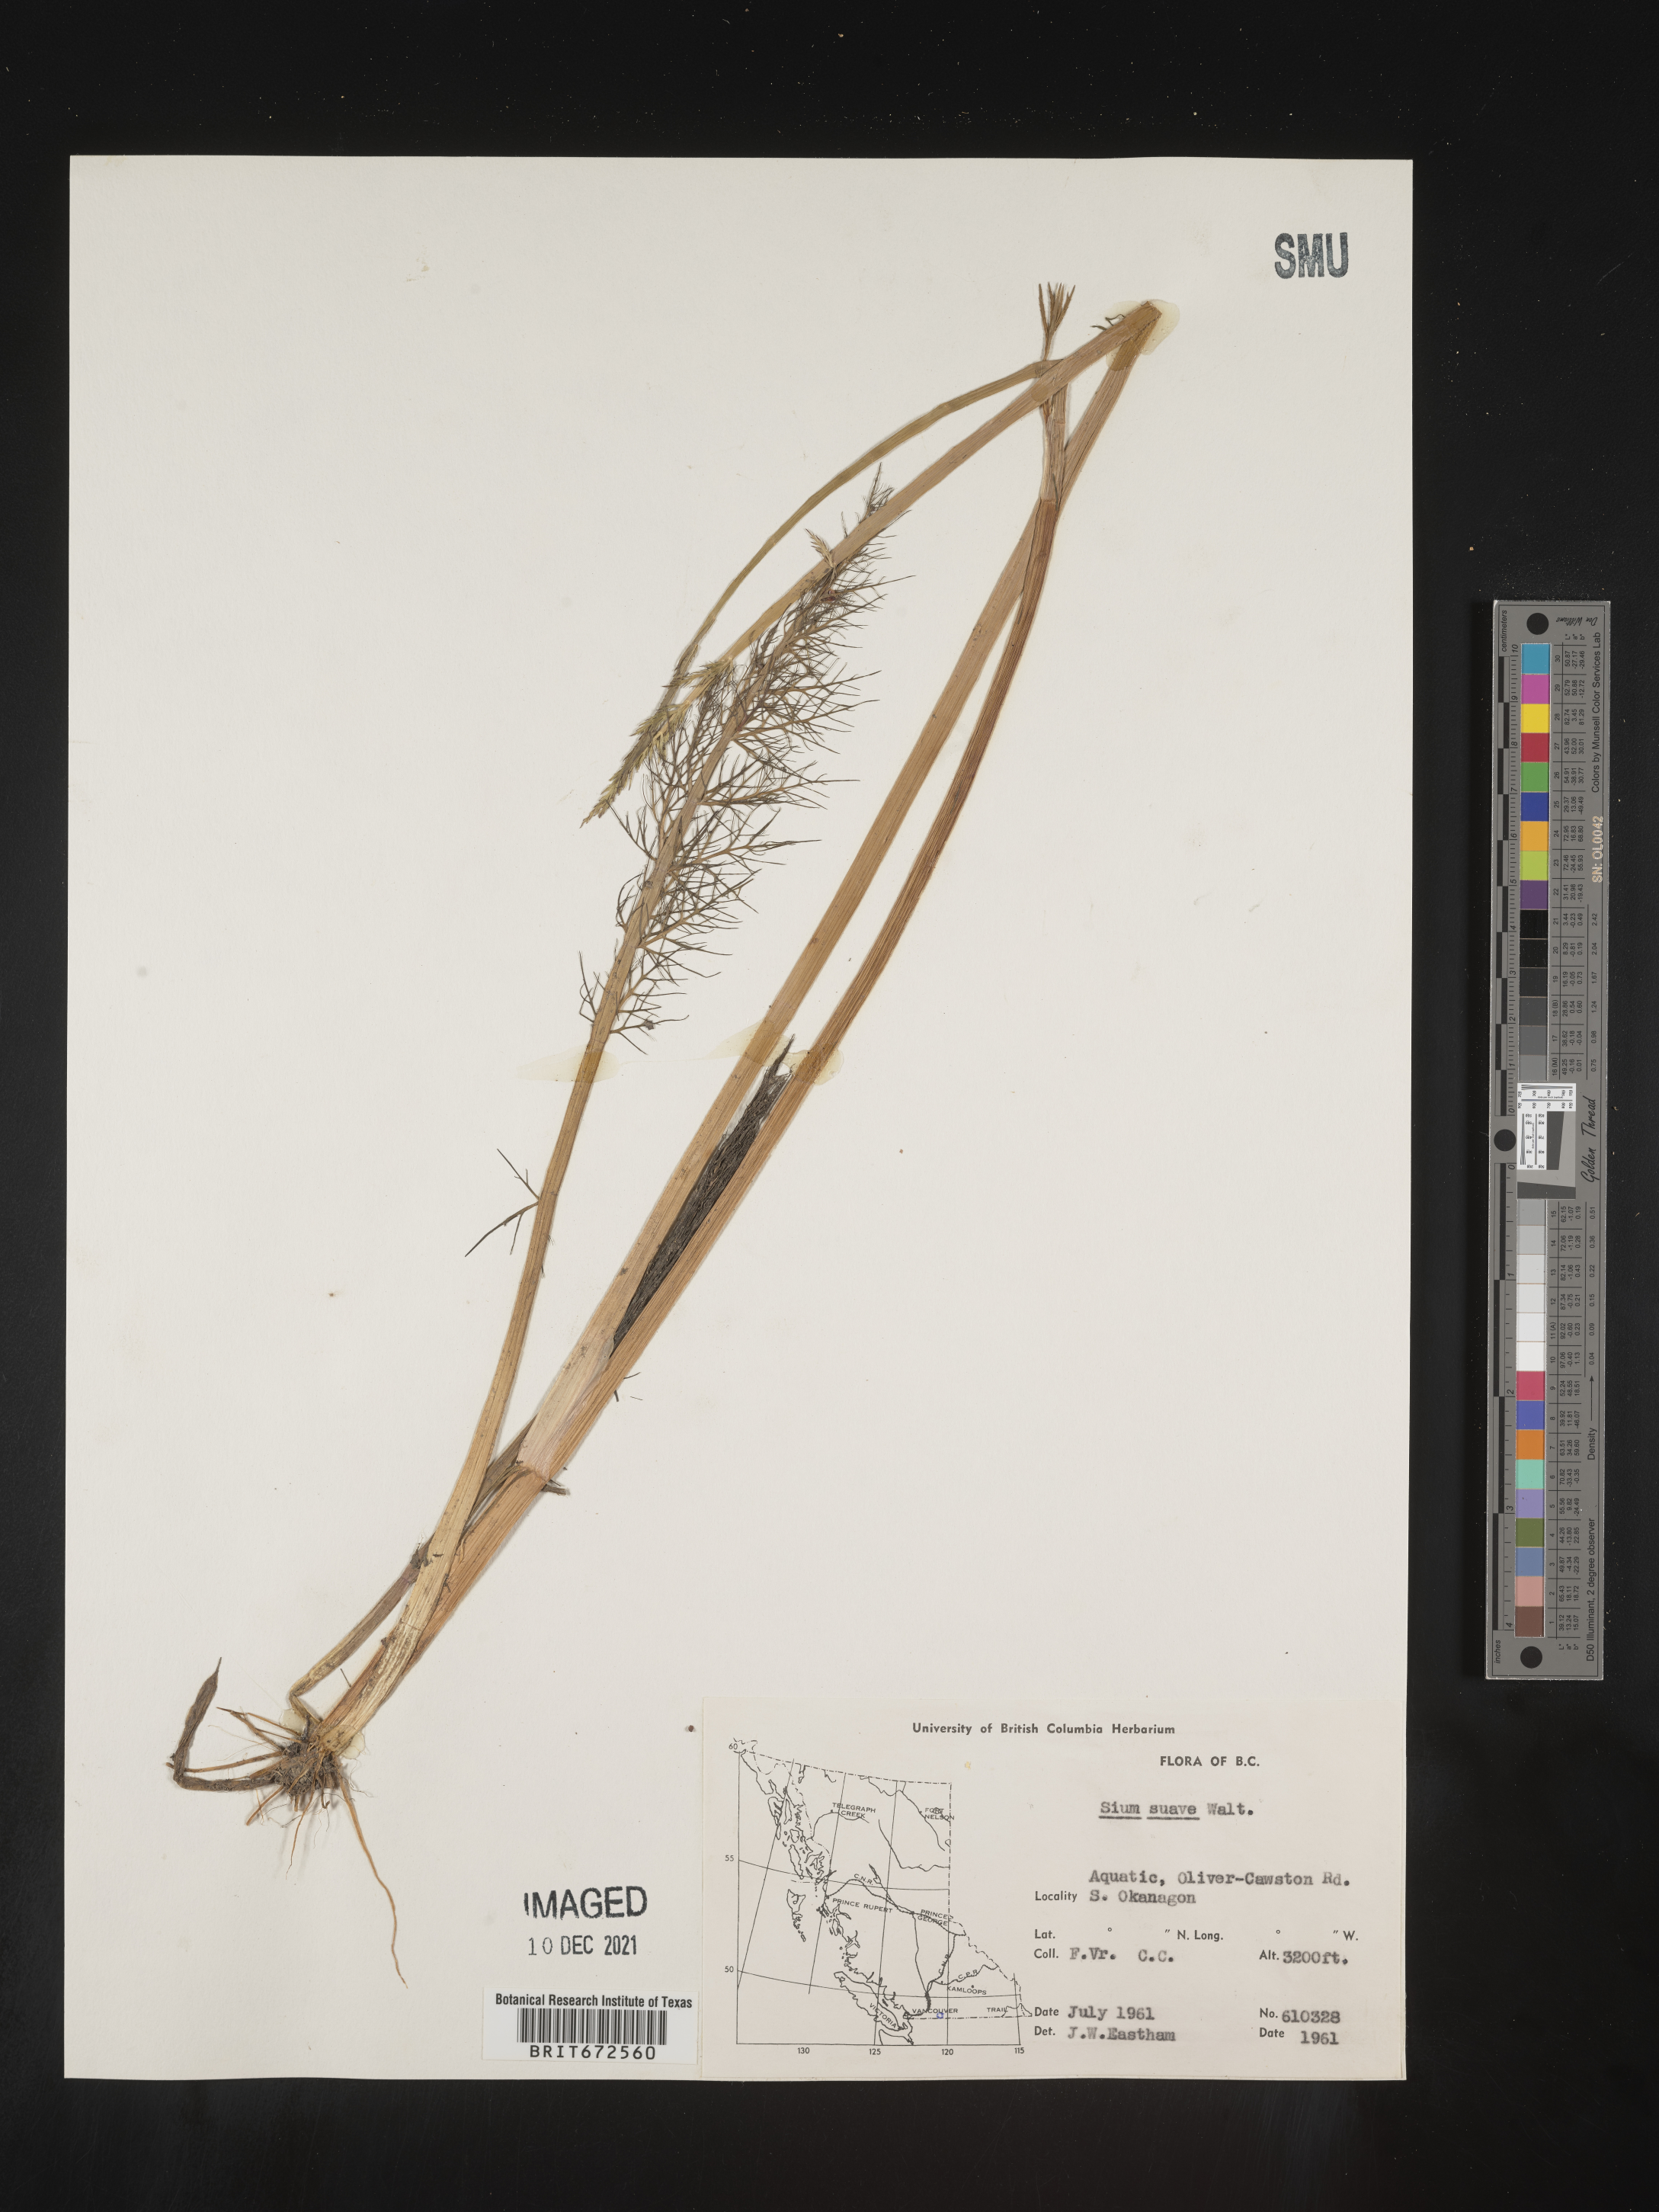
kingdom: Plantae
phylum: Tracheophyta
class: Magnoliopsida
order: Apiales
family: Apiaceae
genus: Sium
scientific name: Sium suave
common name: Hemlock water-parsnip
